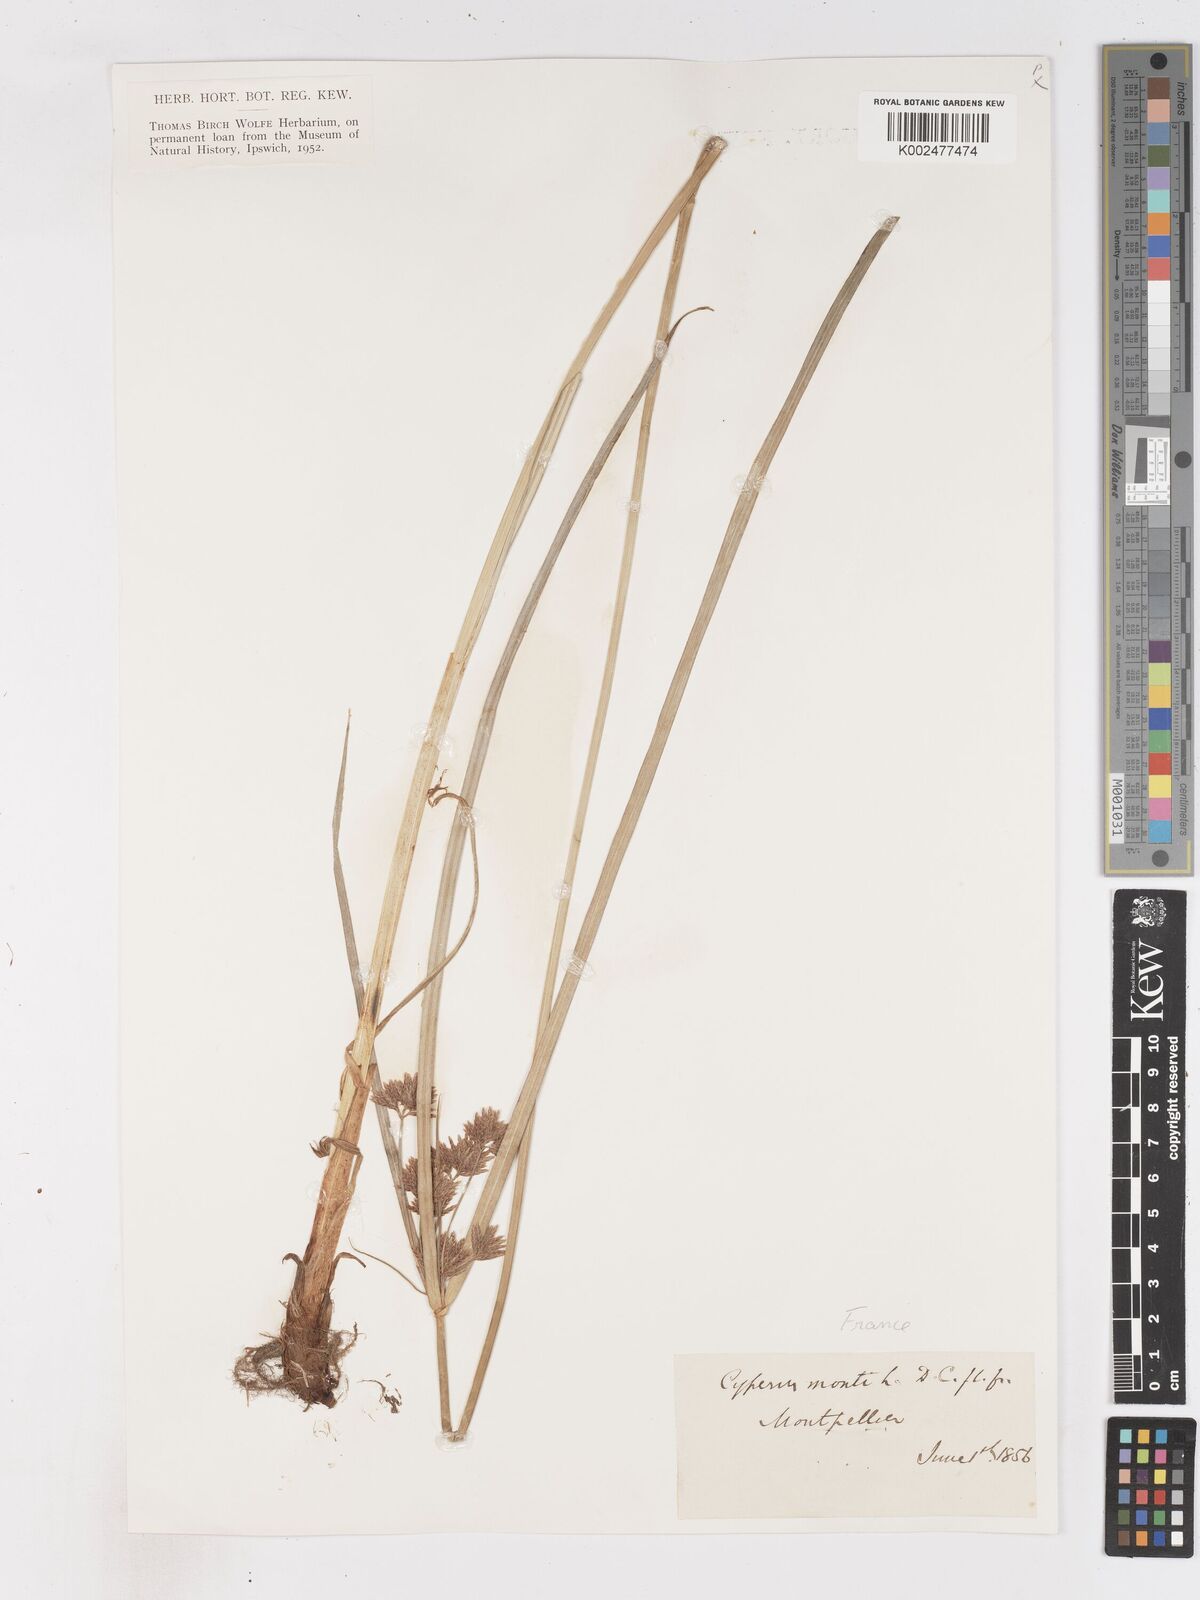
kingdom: Plantae
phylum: Tracheophyta
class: Liliopsida
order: Poales
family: Cyperaceae
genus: Cyperus
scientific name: Cyperus serotinus
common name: Tidalmarsh flatsedge
